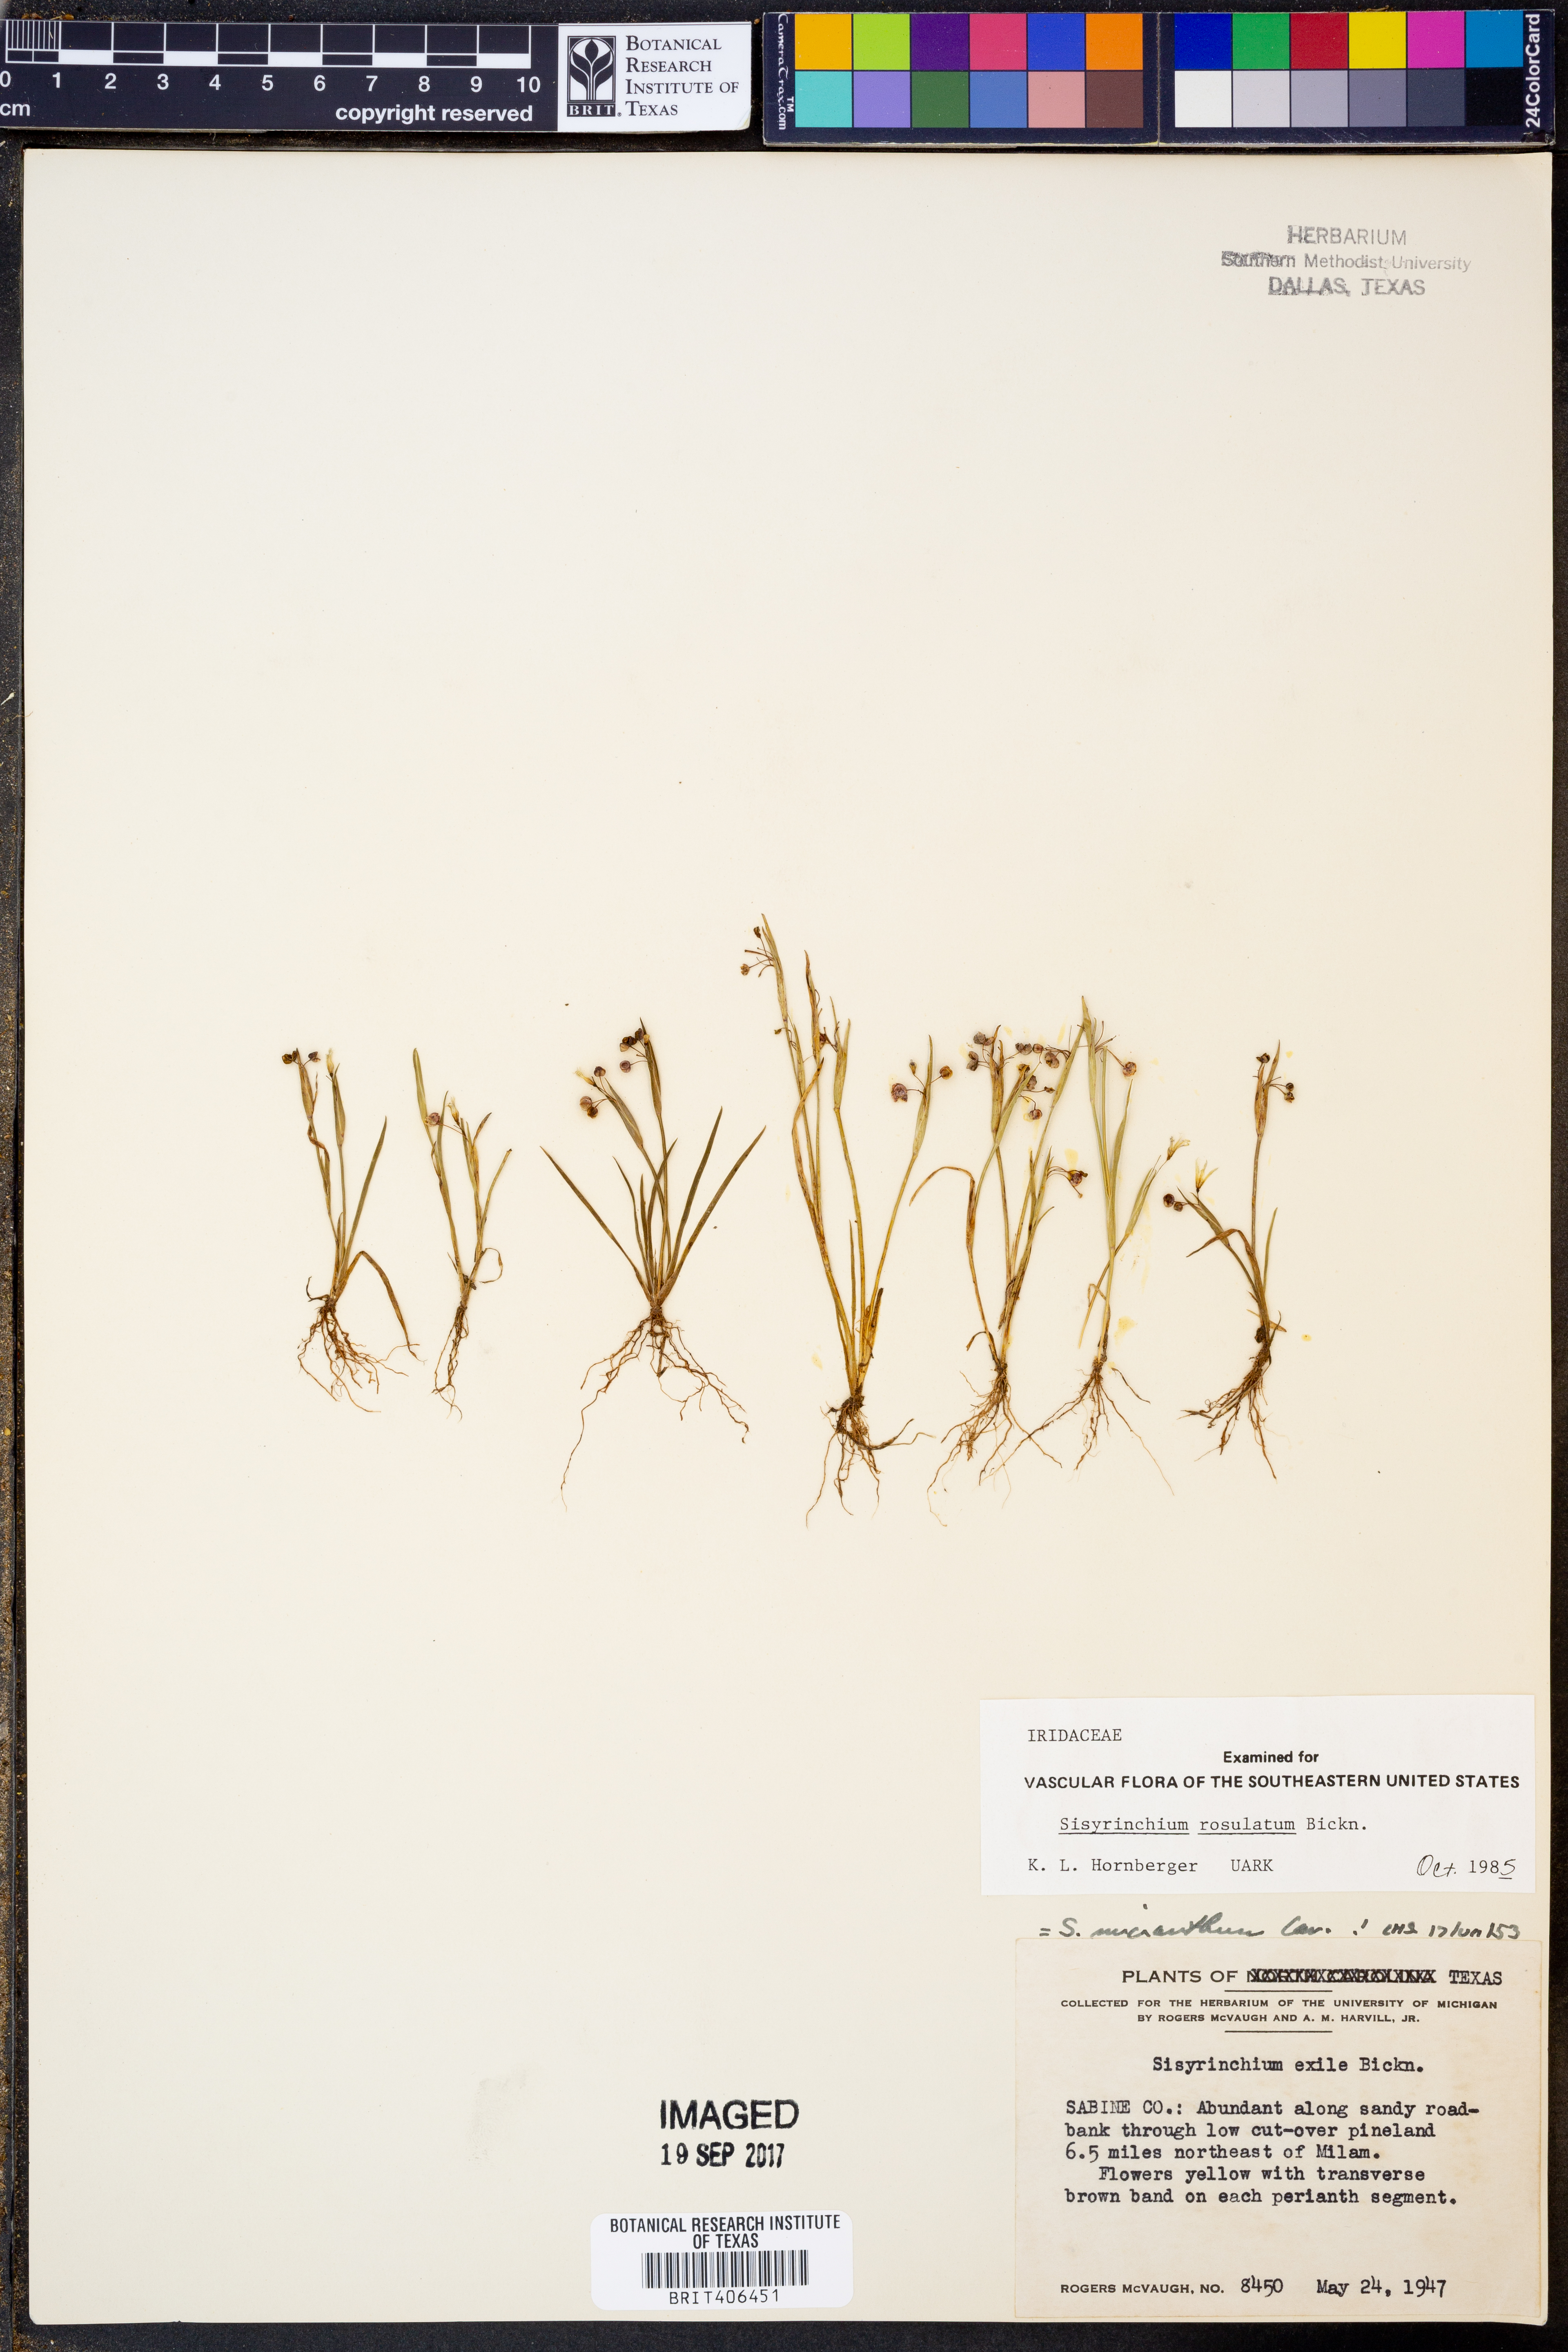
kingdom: Plantae
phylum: Tracheophyta
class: Liliopsida
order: Asparagales
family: Iridaceae
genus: Sisyrinchium
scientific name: Sisyrinchium rosulatum
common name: Annual blue-eyed grass
